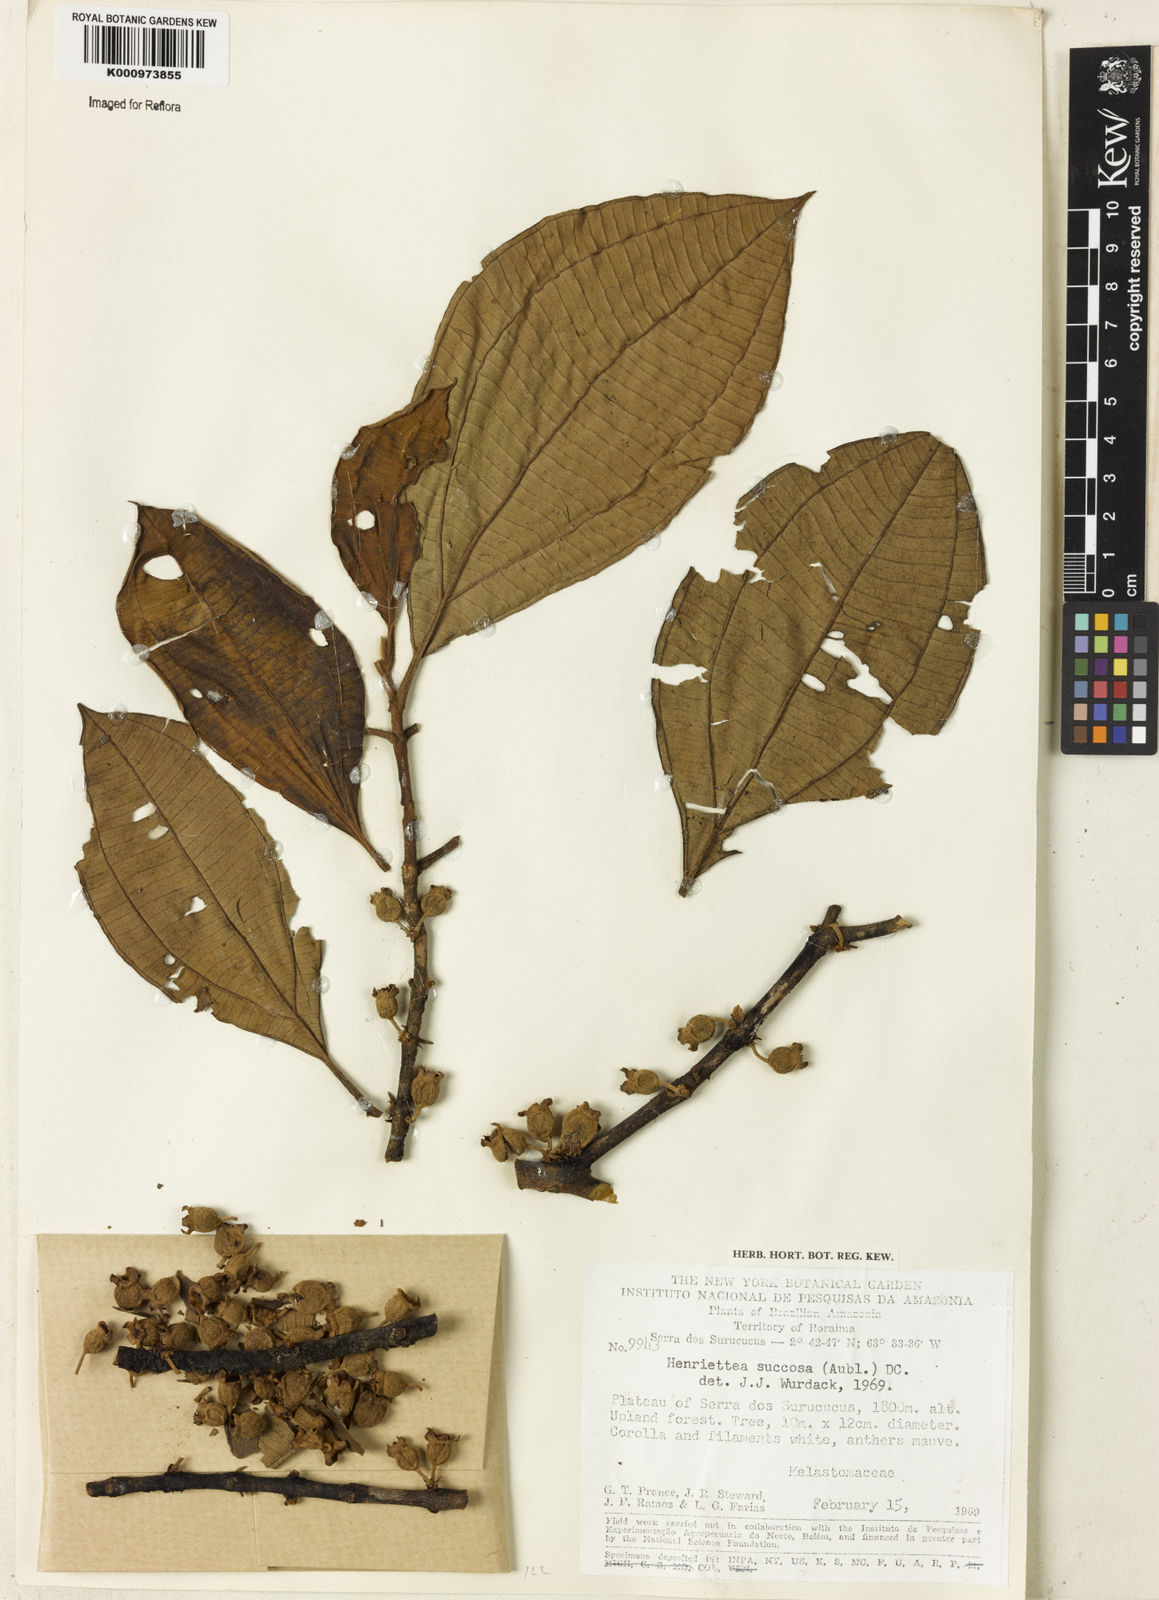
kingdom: Plantae
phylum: Tracheophyta
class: Magnoliopsida
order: Myrtales
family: Melastomataceae
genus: Henriettea
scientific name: Henriettea succosa
